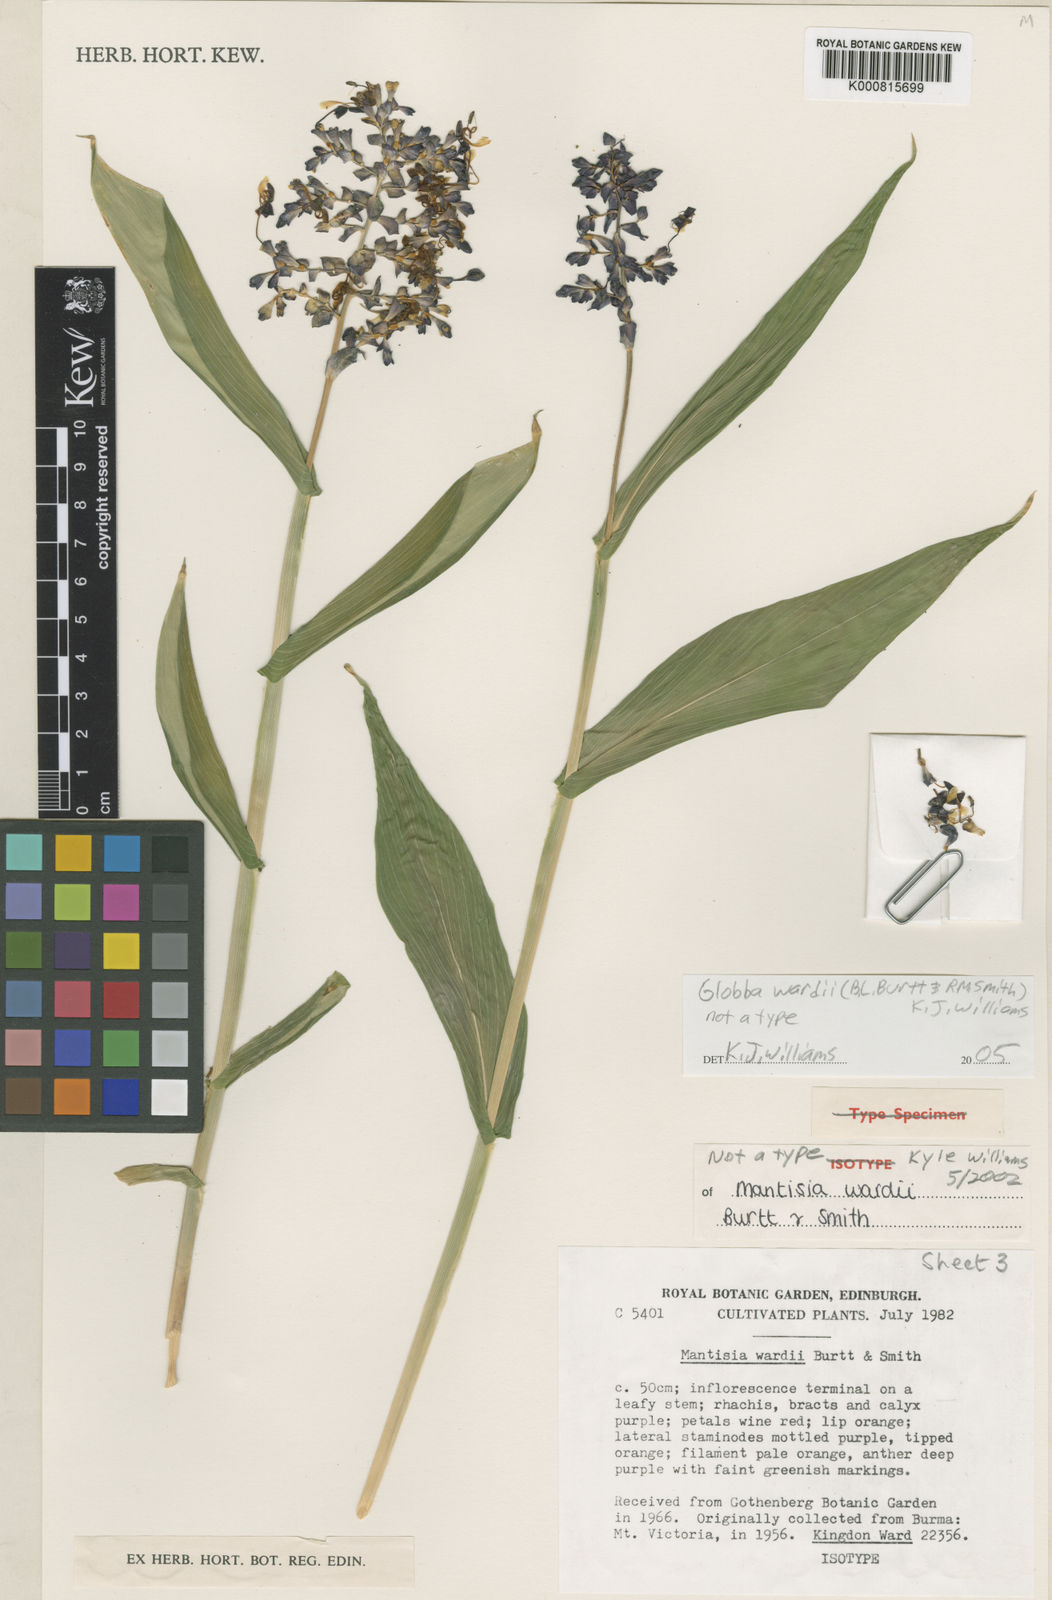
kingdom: Plantae
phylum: Tracheophyta
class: Liliopsida
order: Zingiberales
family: Zingiberaceae
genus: Globba
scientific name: Globba wardii
